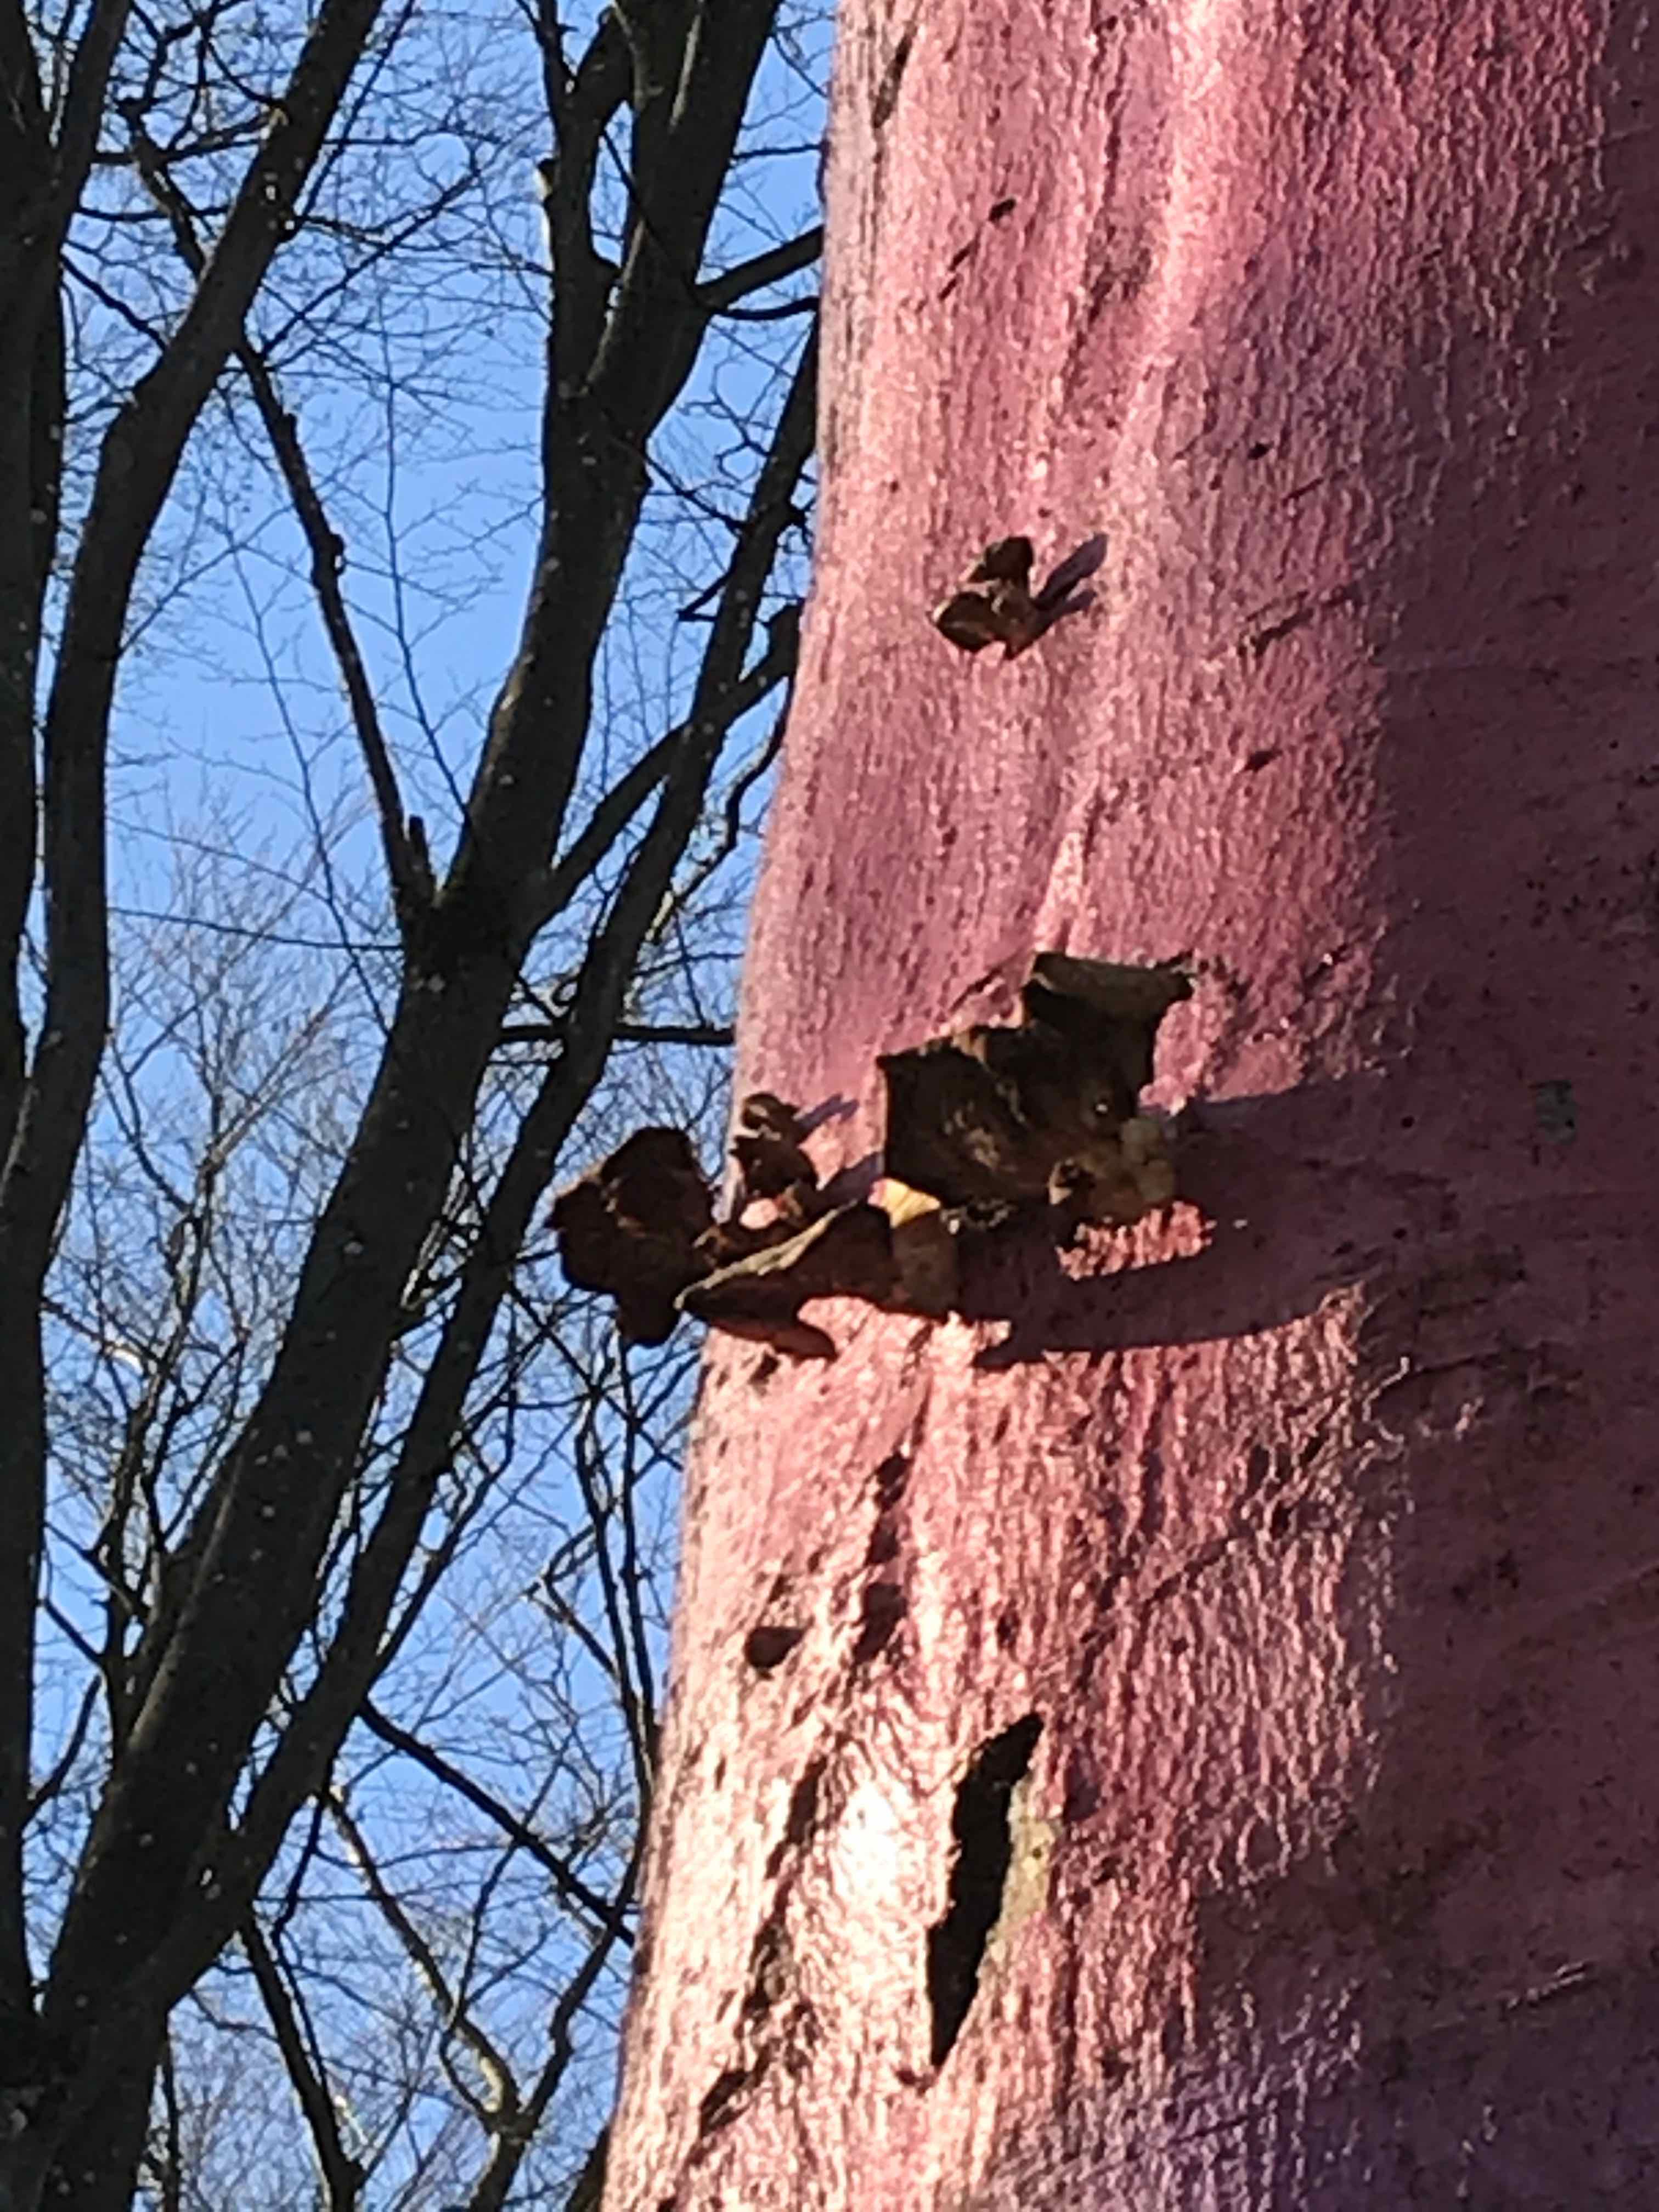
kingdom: Fungi
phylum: Basidiomycota
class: Agaricomycetes
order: Agaricales
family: Pleurotaceae
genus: Pleurotus
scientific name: Pleurotus ostreatus
